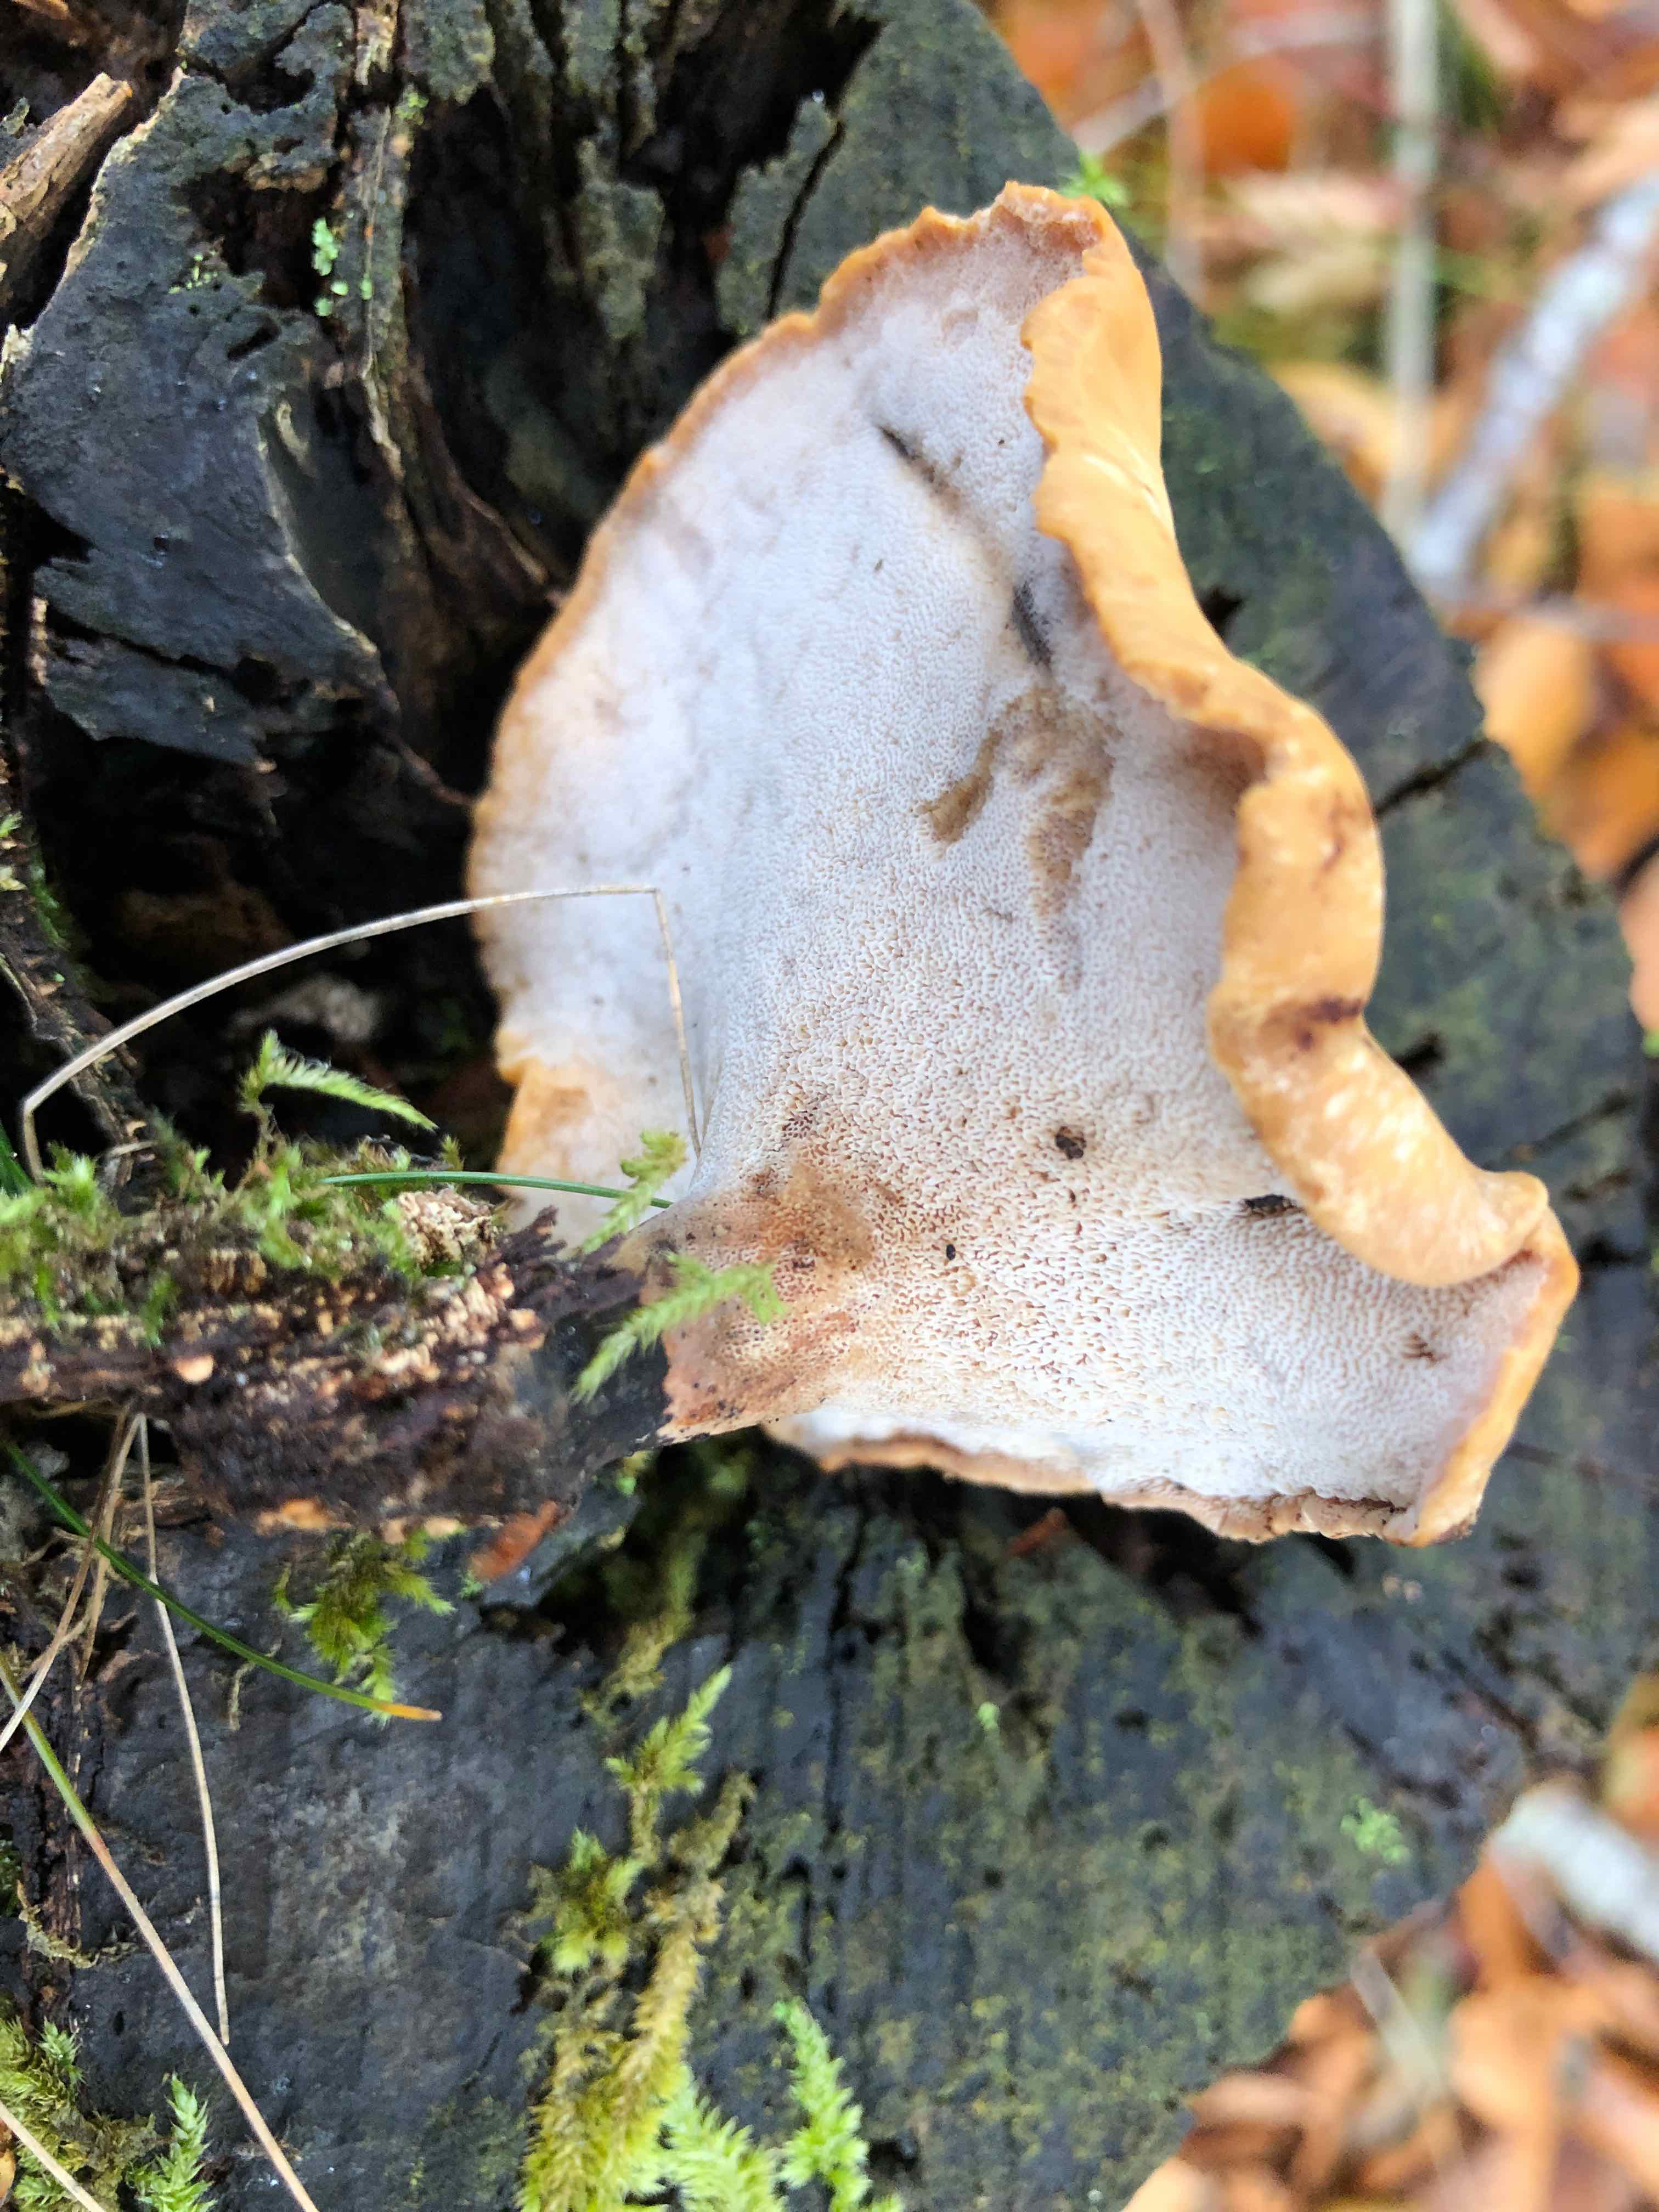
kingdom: Fungi
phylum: Basidiomycota
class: Agaricomycetes
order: Polyporales
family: Polyporaceae
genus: Cerioporus
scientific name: Cerioporus varius
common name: foranderlig stilkporesvamp
